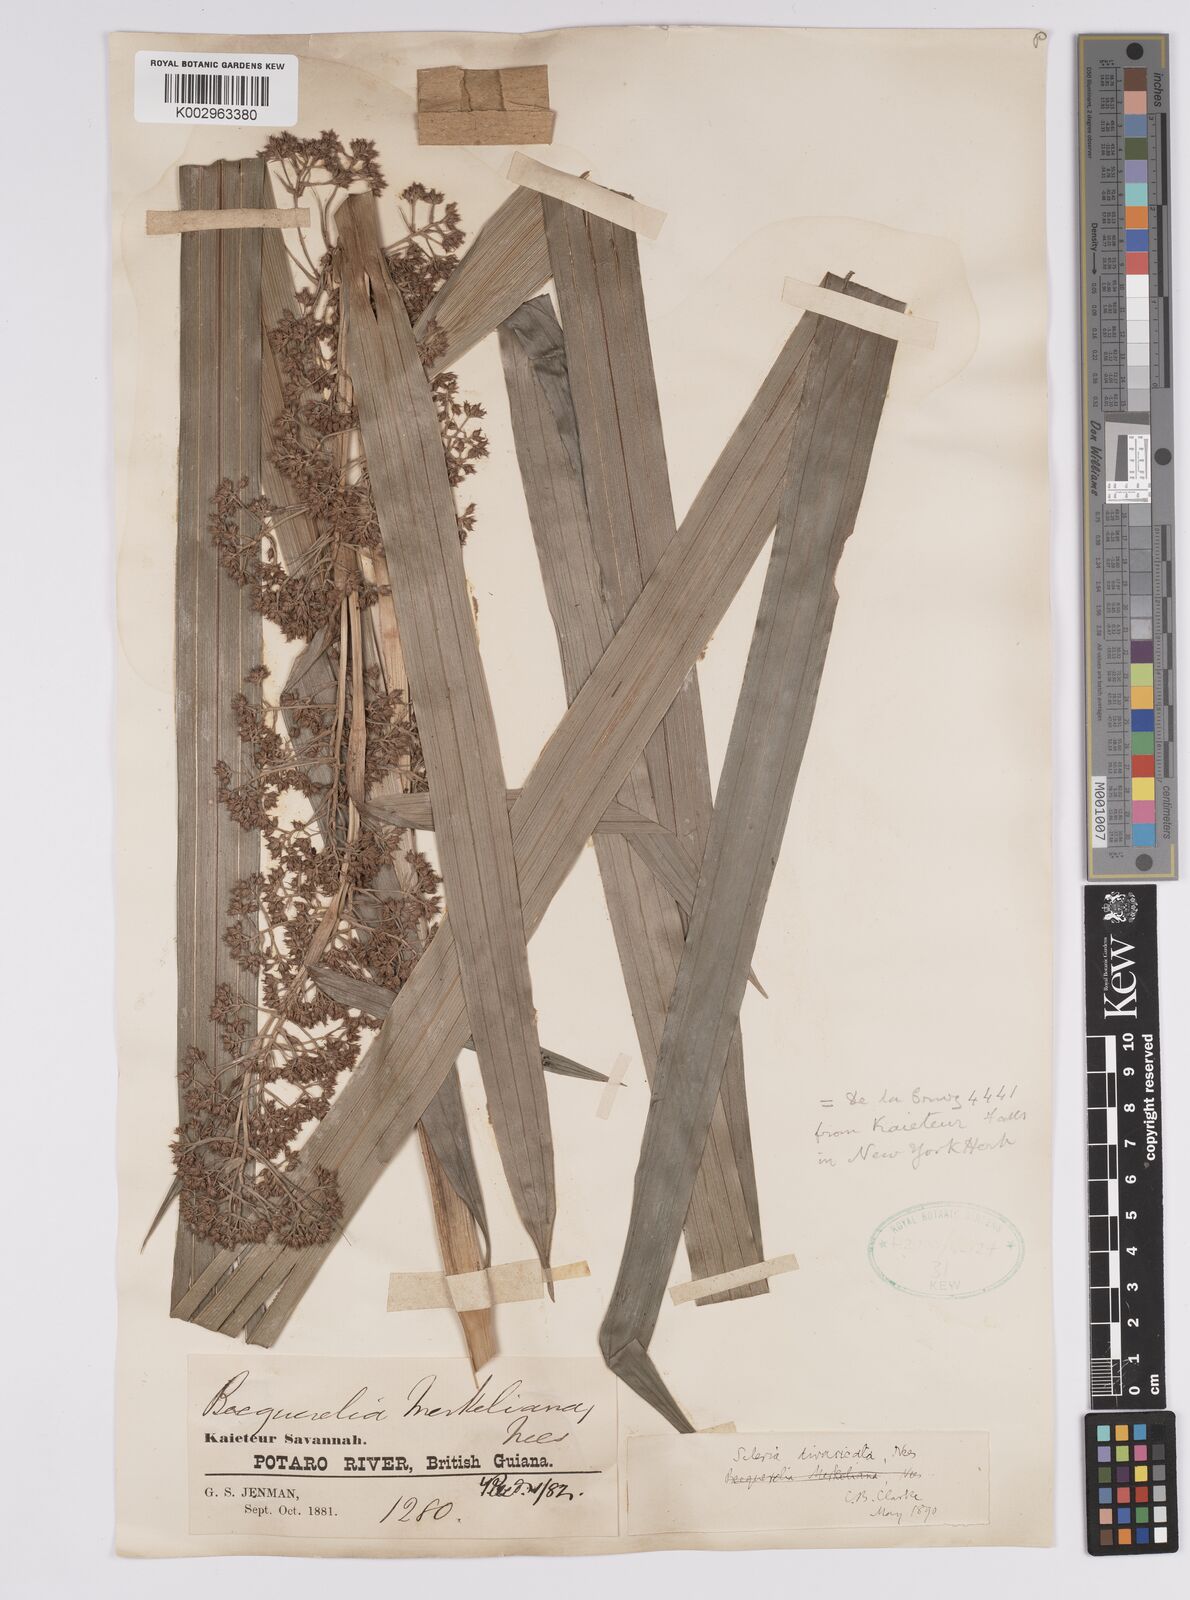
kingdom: Plantae
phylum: Tracheophyta
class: Liliopsida
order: Poales
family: Cyperaceae
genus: Becquerelia
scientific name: Becquerelia merkeliana
